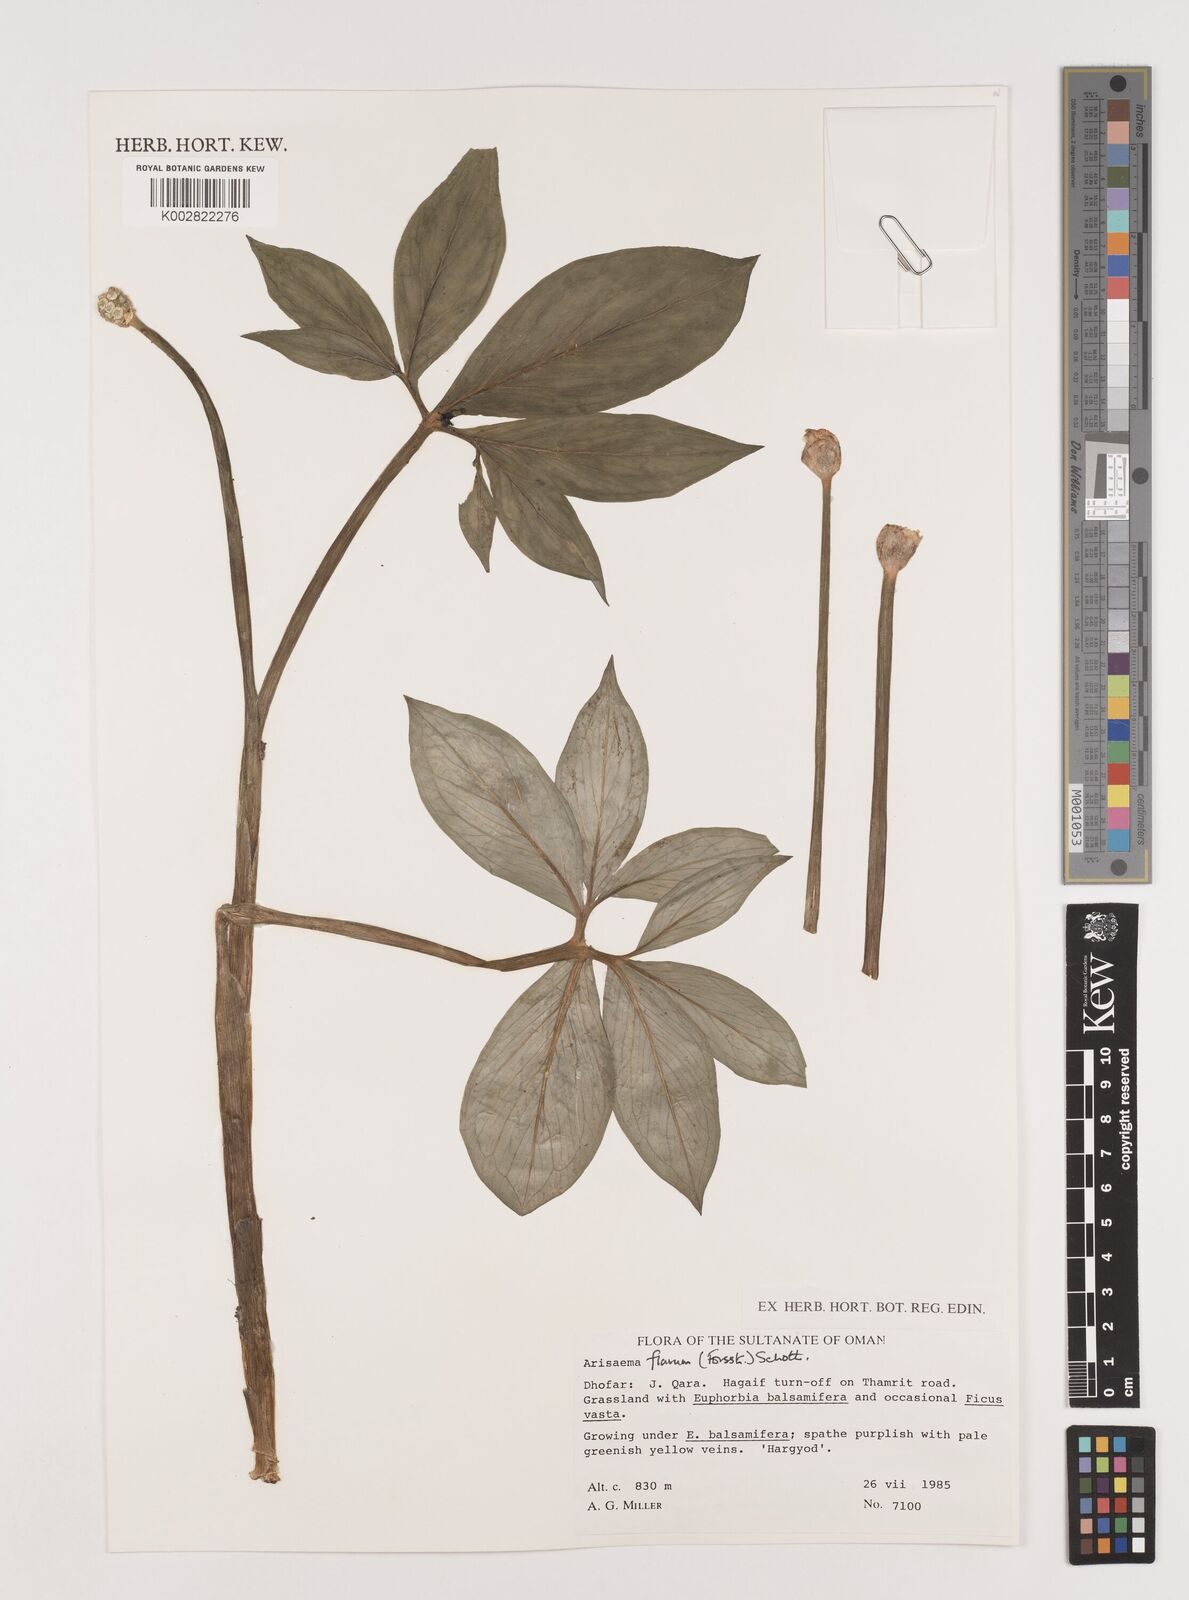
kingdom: Plantae
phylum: Tracheophyta
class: Liliopsida
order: Alismatales
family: Araceae
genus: Arisaema
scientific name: Arisaema flavum
